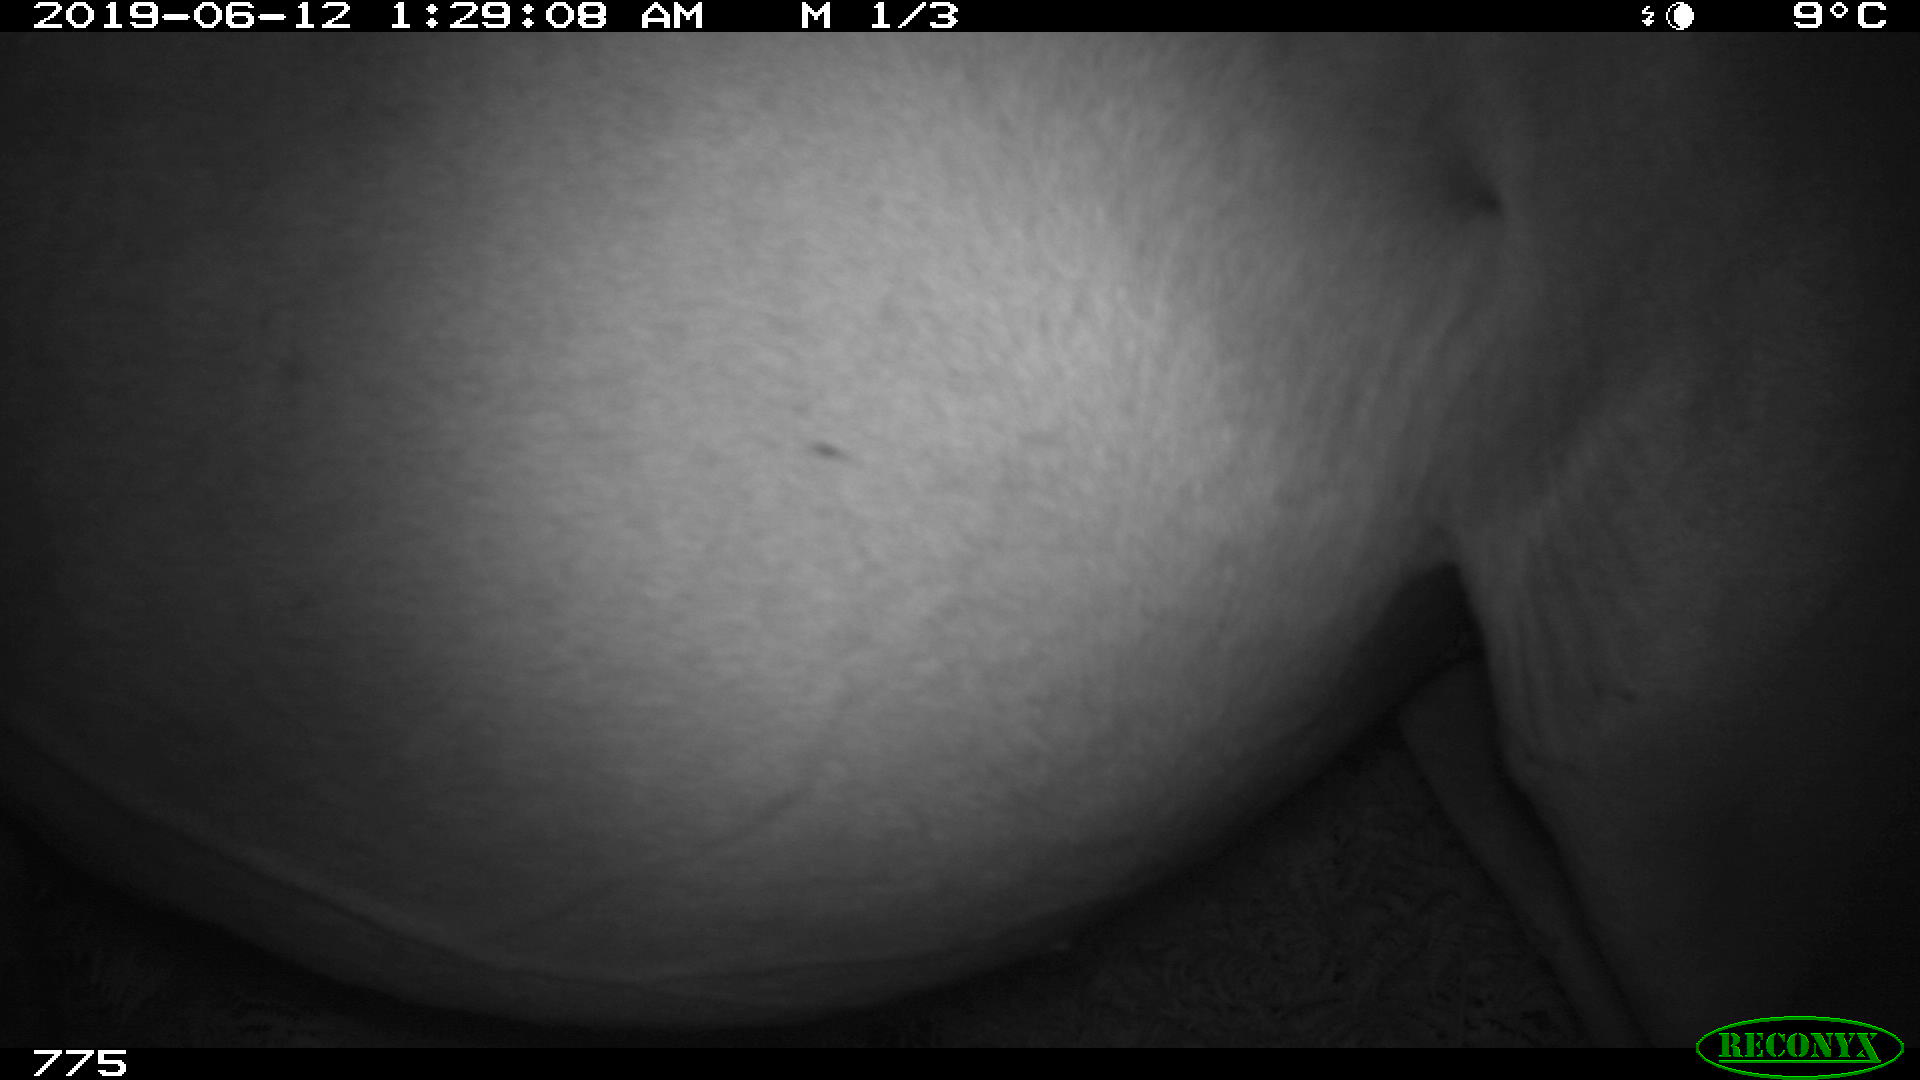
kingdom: Animalia
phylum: Chordata
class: Mammalia
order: Perissodactyla
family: Equidae
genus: Equus
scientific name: Equus caballus
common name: Horse
